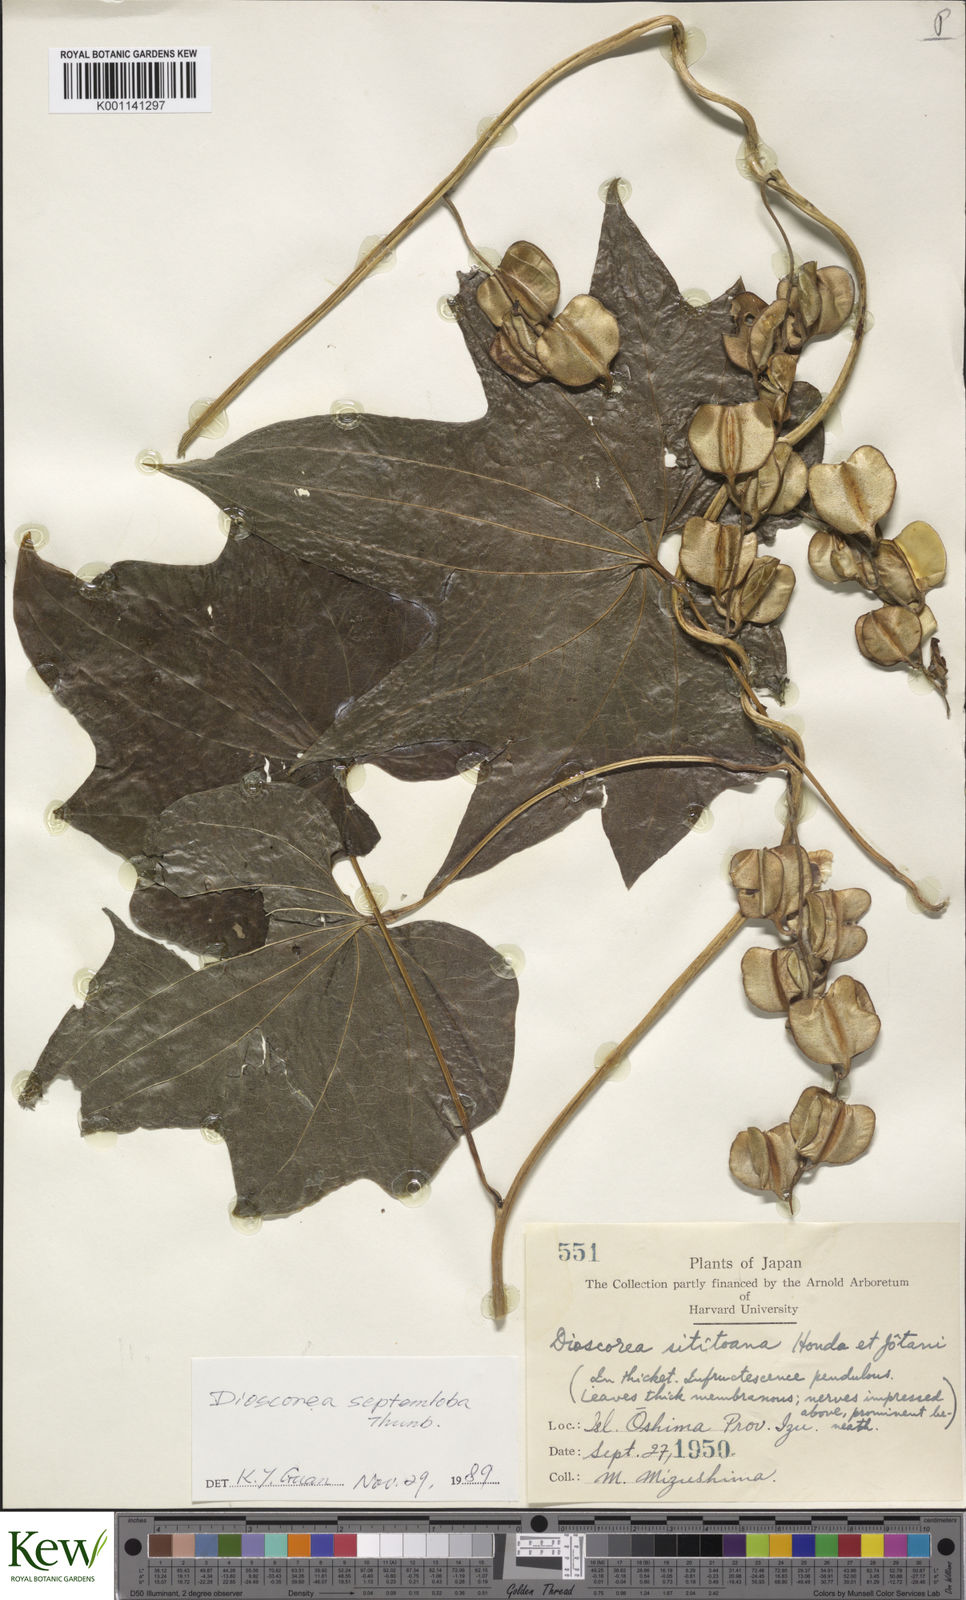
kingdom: Plantae
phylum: Tracheophyta
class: Liliopsida
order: Dioscoreales
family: Dioscoreaceae
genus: Dioscorea
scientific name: Dioscorea septemloba
